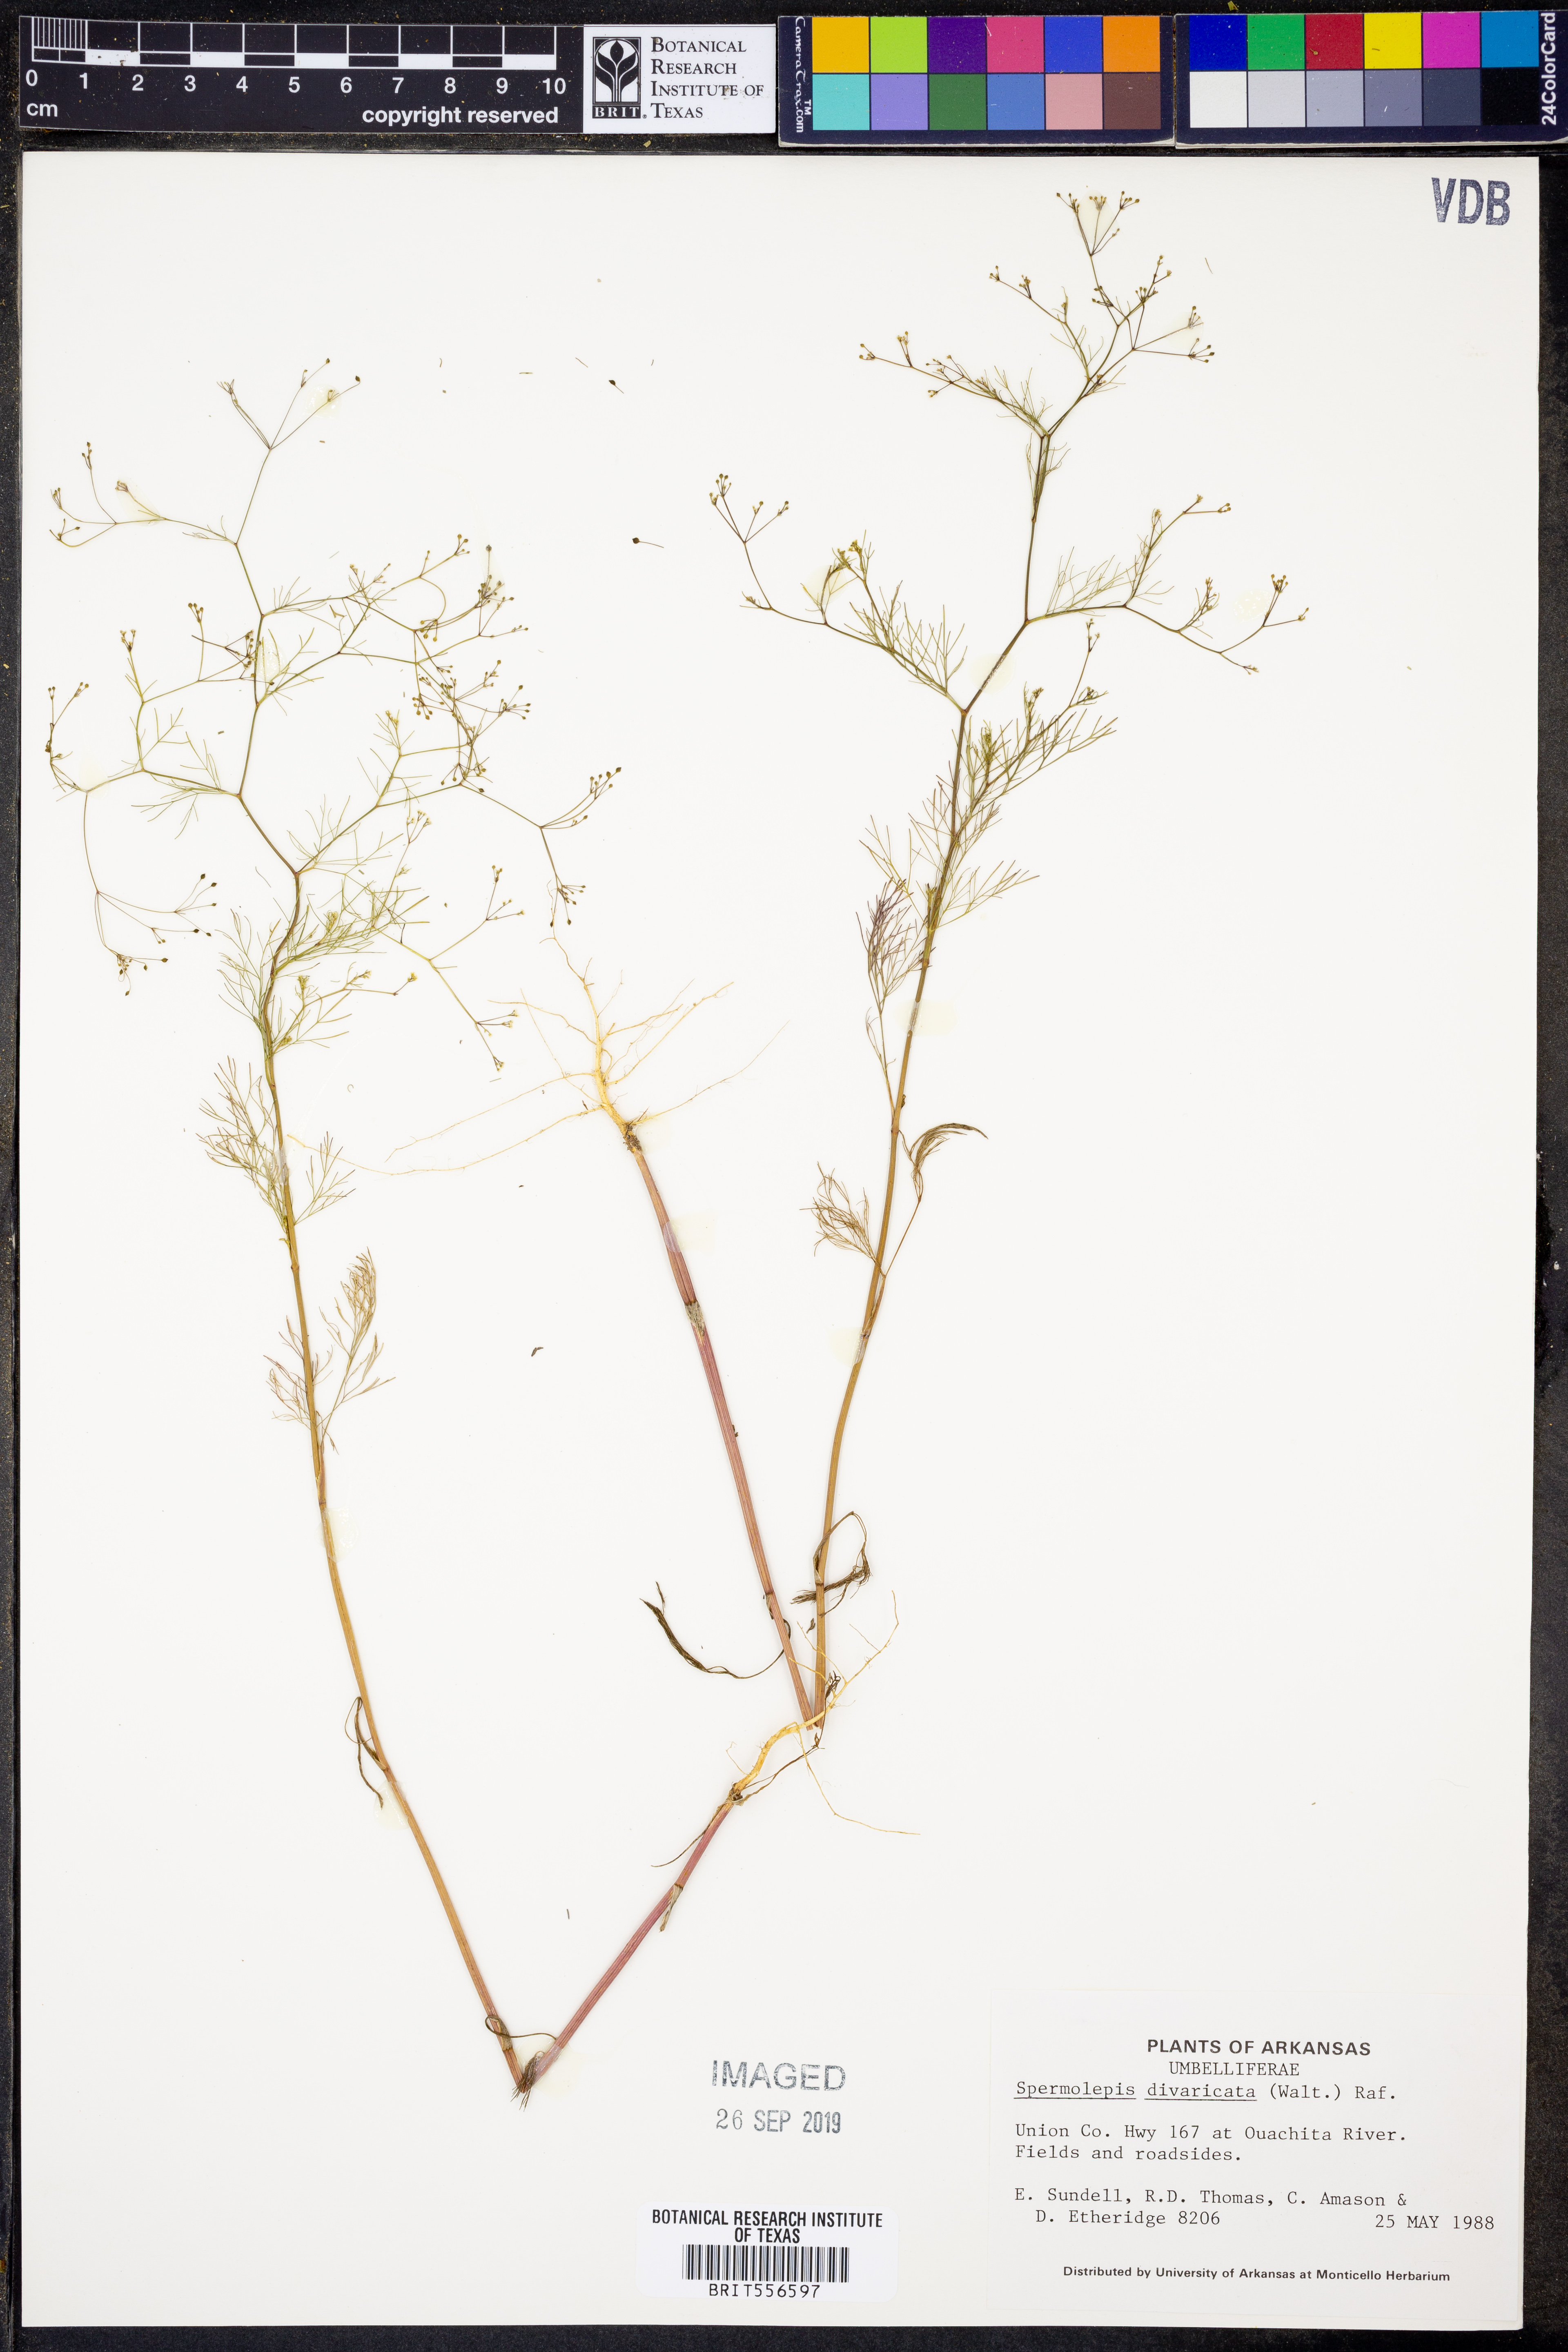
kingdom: Plantae
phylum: Tracheophyta
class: Magnoliopsida
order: Apiales
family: Apiaceae
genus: Spermolepis
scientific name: Spermolepis divaricata
